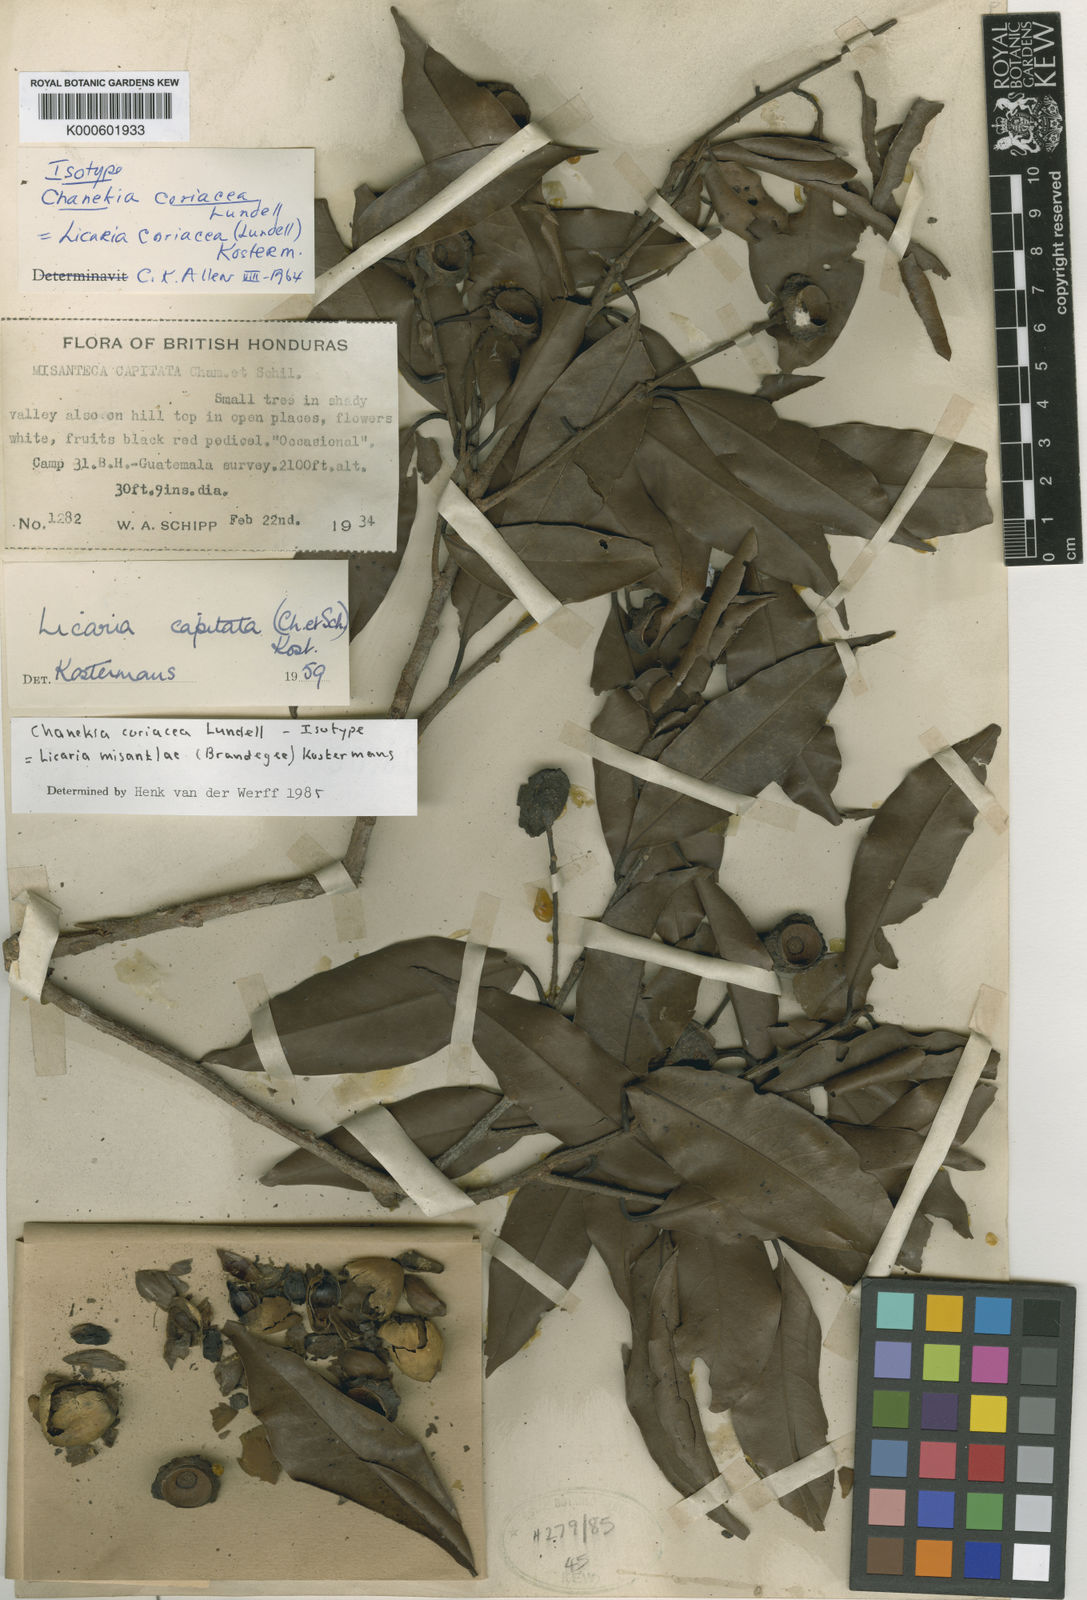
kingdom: Plantae
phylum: Tracheophyta
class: Magnoliopsida
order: Laurales
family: Lauraceae
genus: Licaria
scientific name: Licaria misantlae
